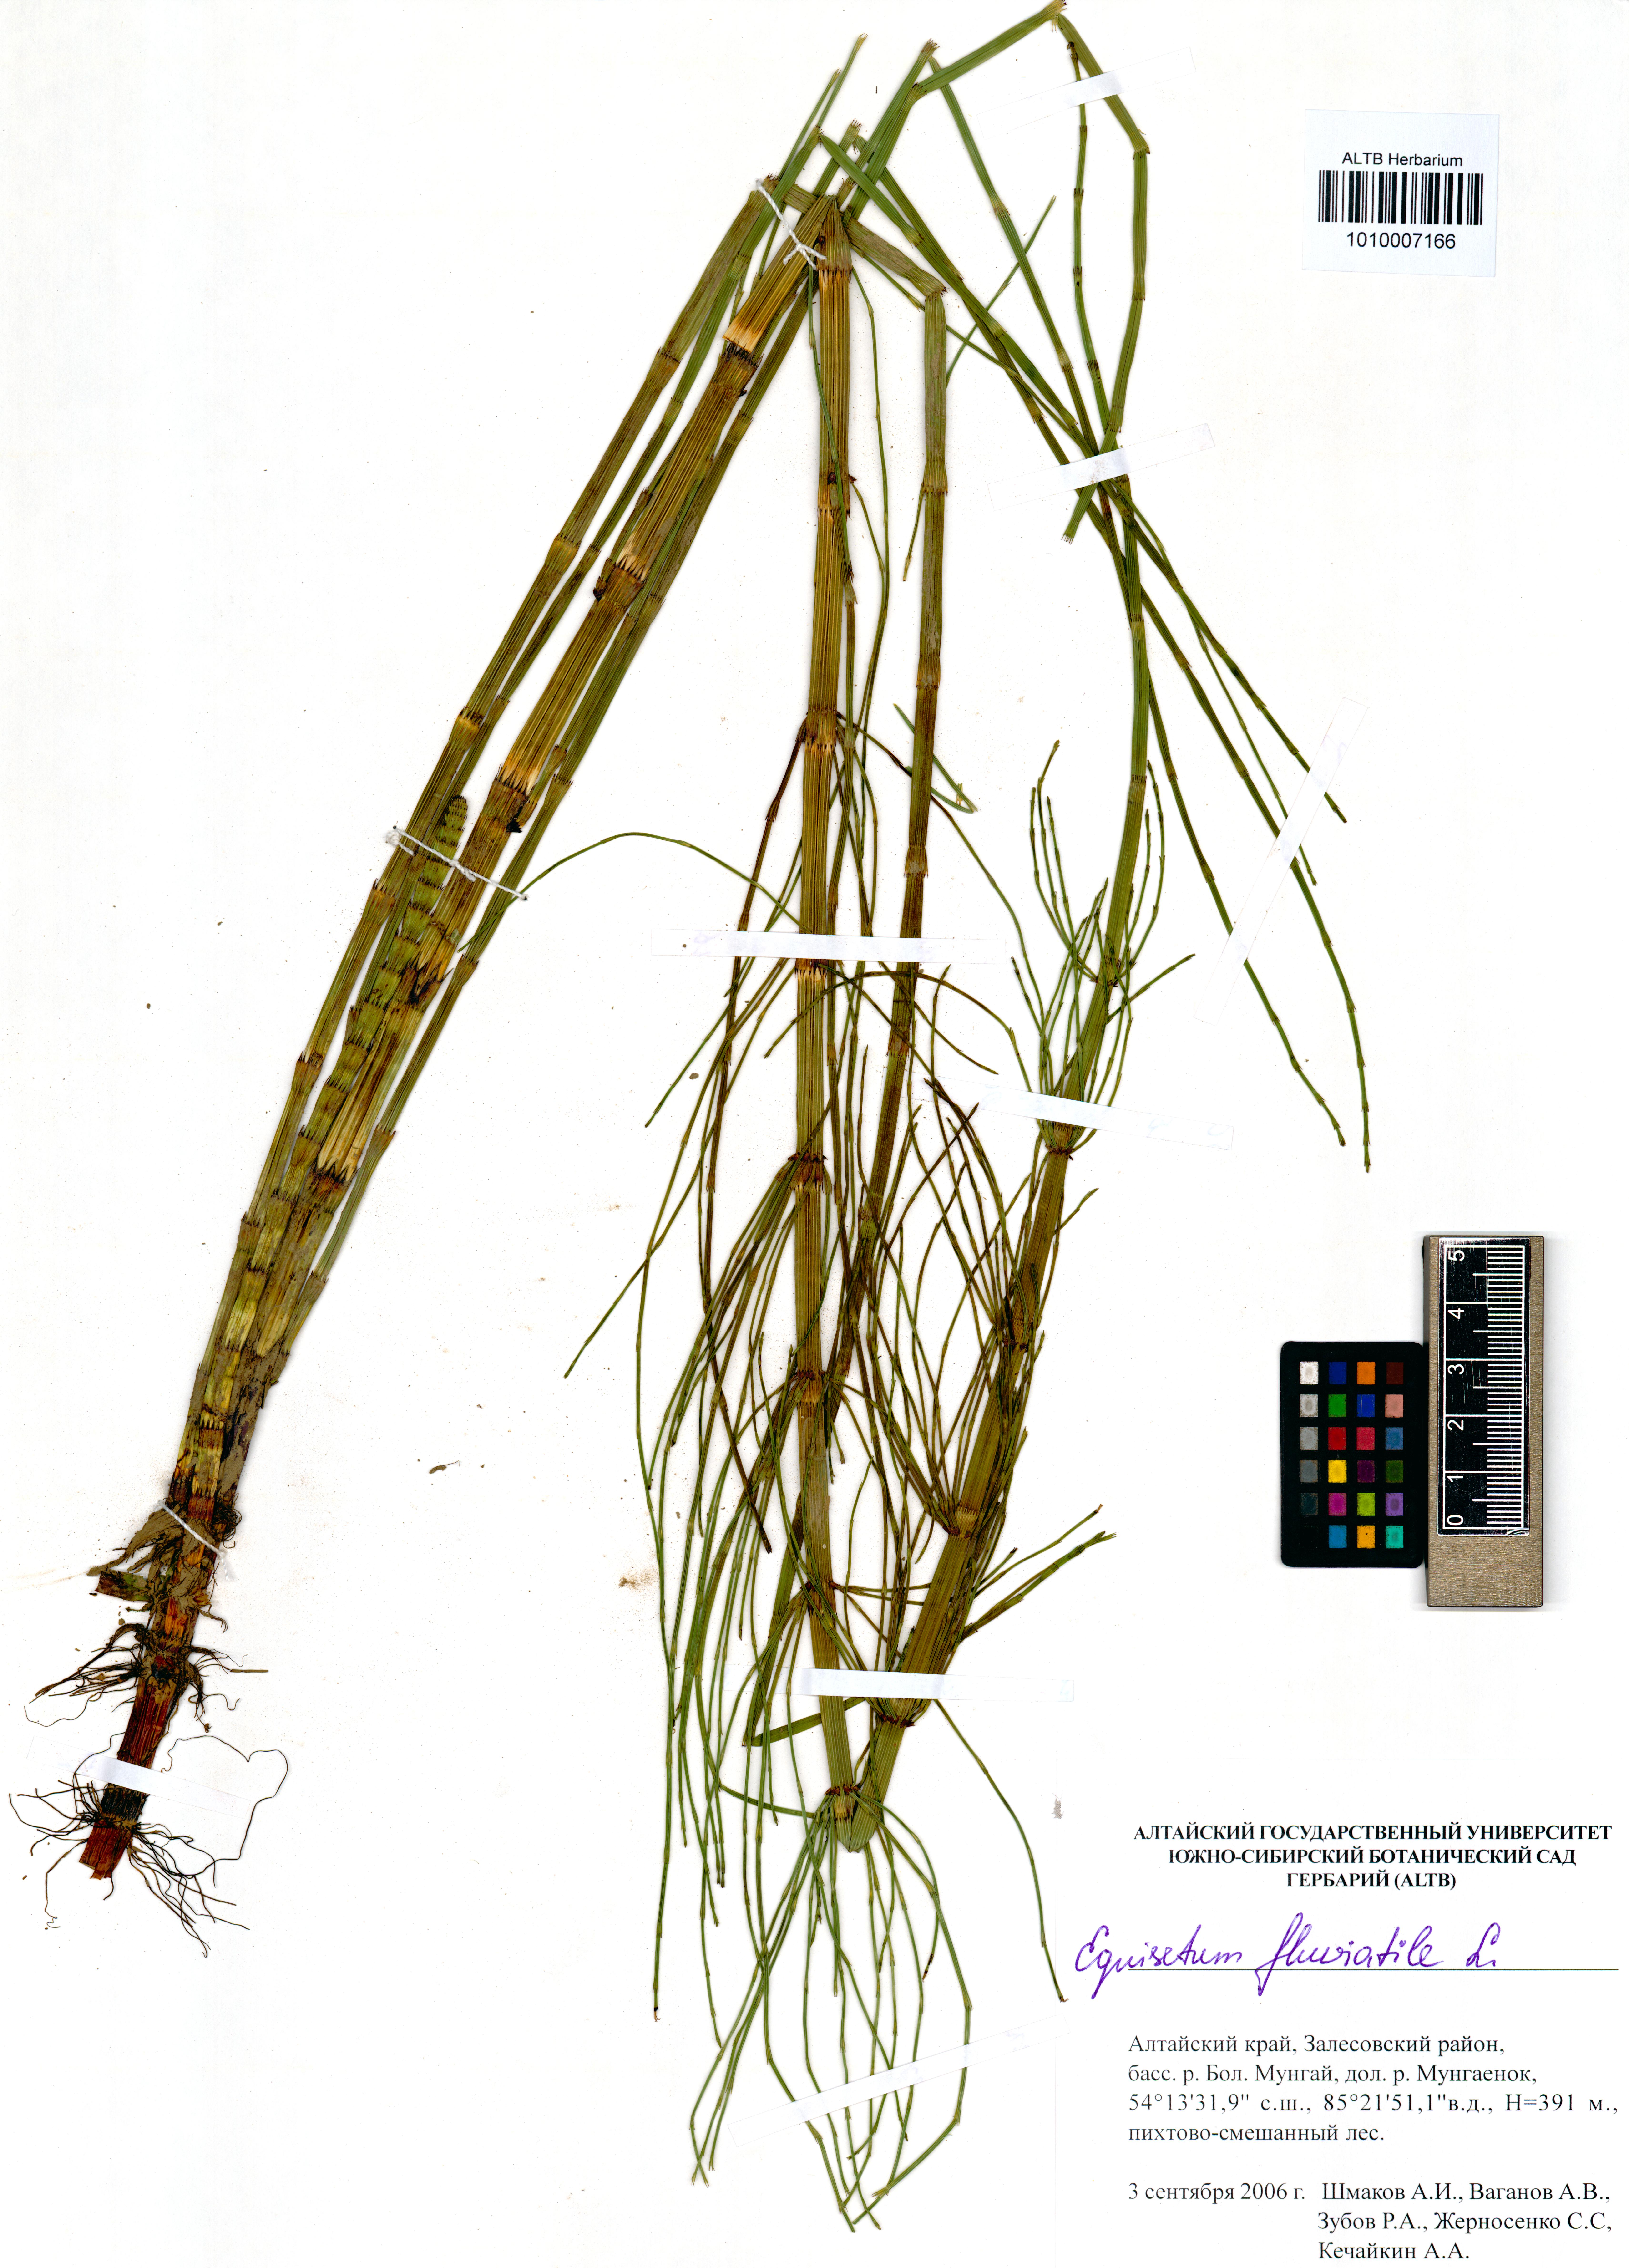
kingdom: Plantae
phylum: Tracheophyta
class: Polypodiopsida
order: Equisetales
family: Equisetaceae
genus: Equisetum
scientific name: Equisetum fluviatile
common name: Water horsetail
